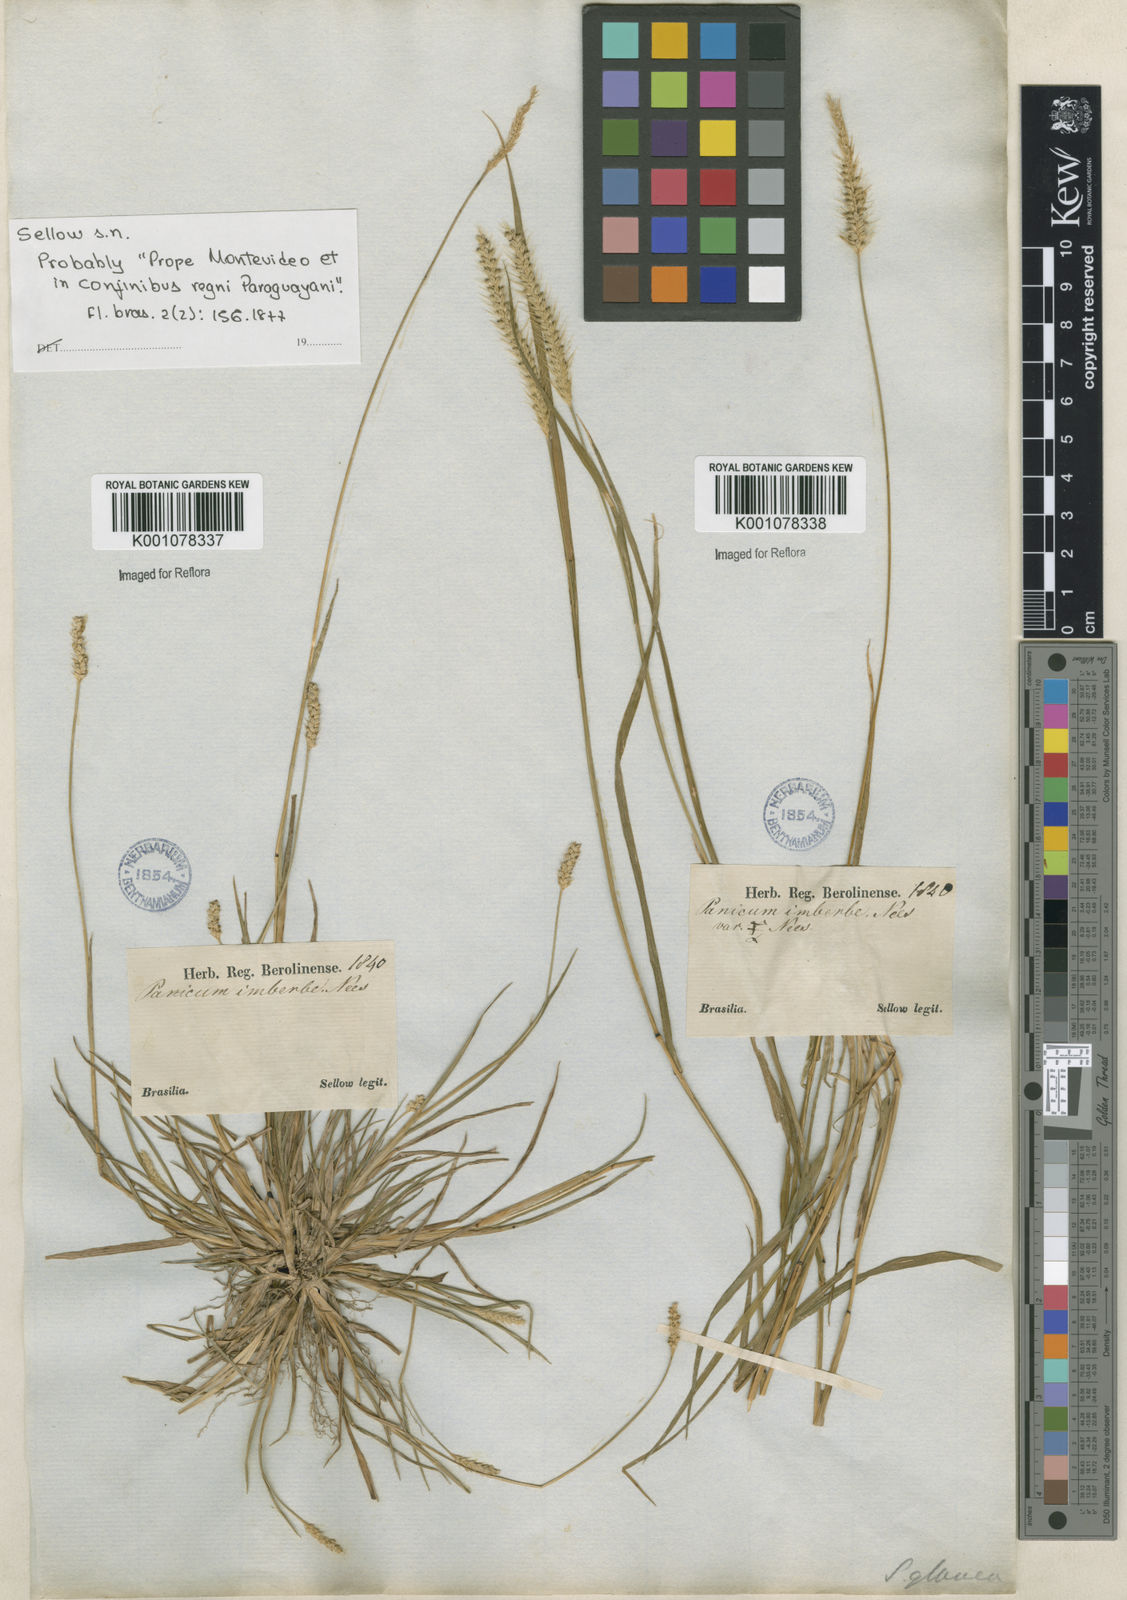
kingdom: Plantae
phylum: Tracheophyta
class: Liliopsida
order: Poales
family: Poaceae
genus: Setaria
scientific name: Setaria parviflora
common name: Knotroot bristle-grass
